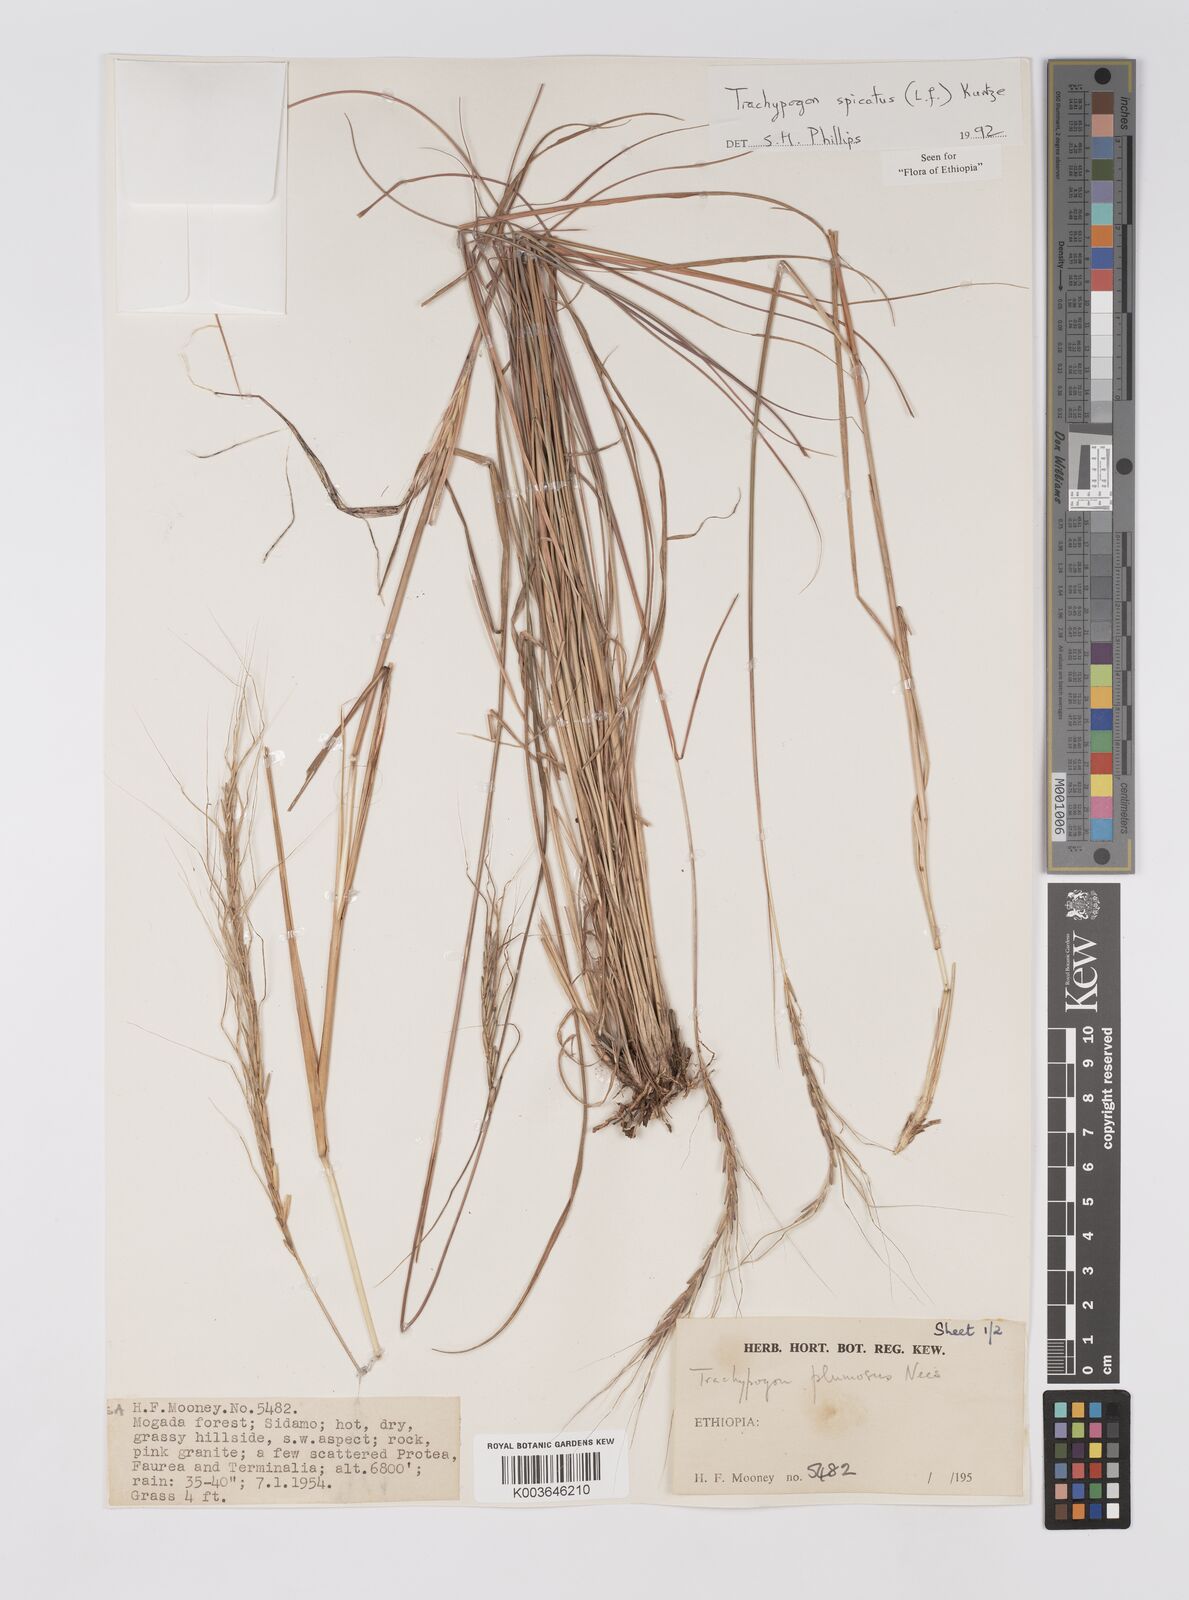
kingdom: Plantae
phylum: Tracheophyta
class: Liliopsida
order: Poales
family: Poaceae
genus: Trachypogon
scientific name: Trachypogon spicatus
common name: Crinkle-awn
